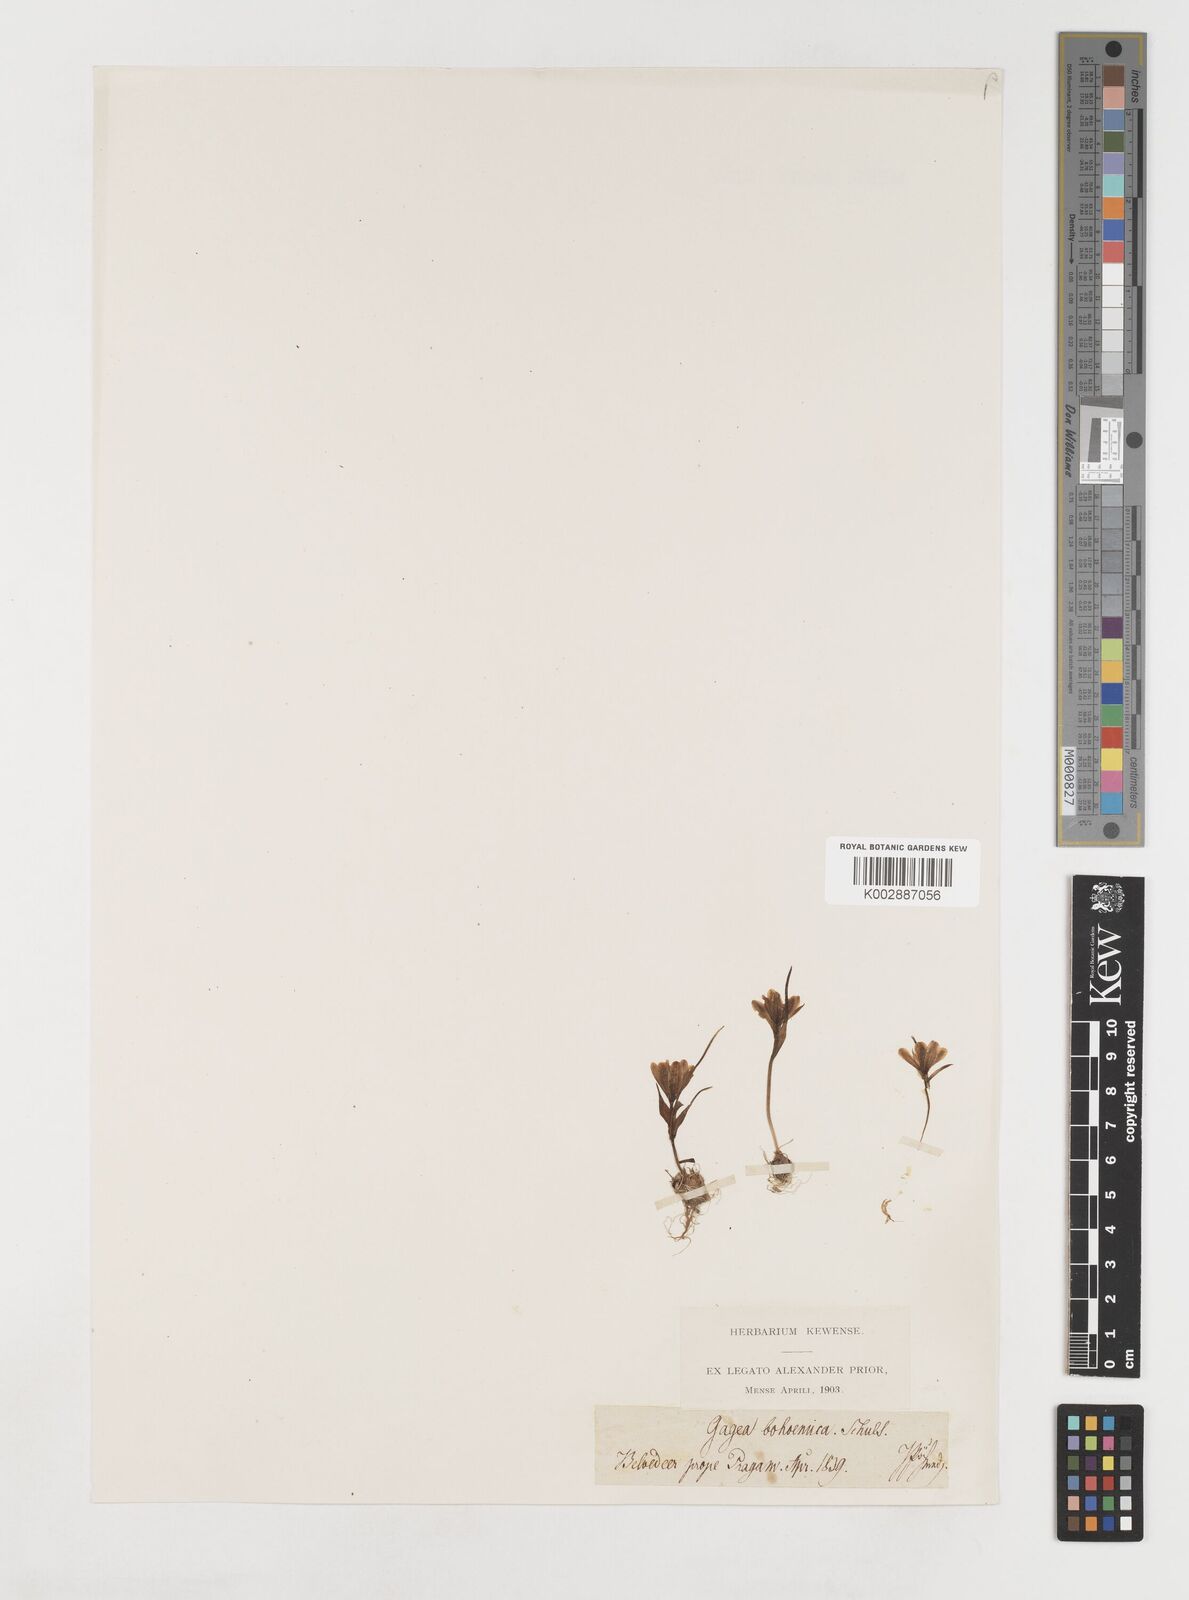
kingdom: Plantae
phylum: Tracheophyta
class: Liliopsida
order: Liliales
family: Liliaceae
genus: Gagea
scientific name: Gagea bohemica
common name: Early star-of-bethlehem
